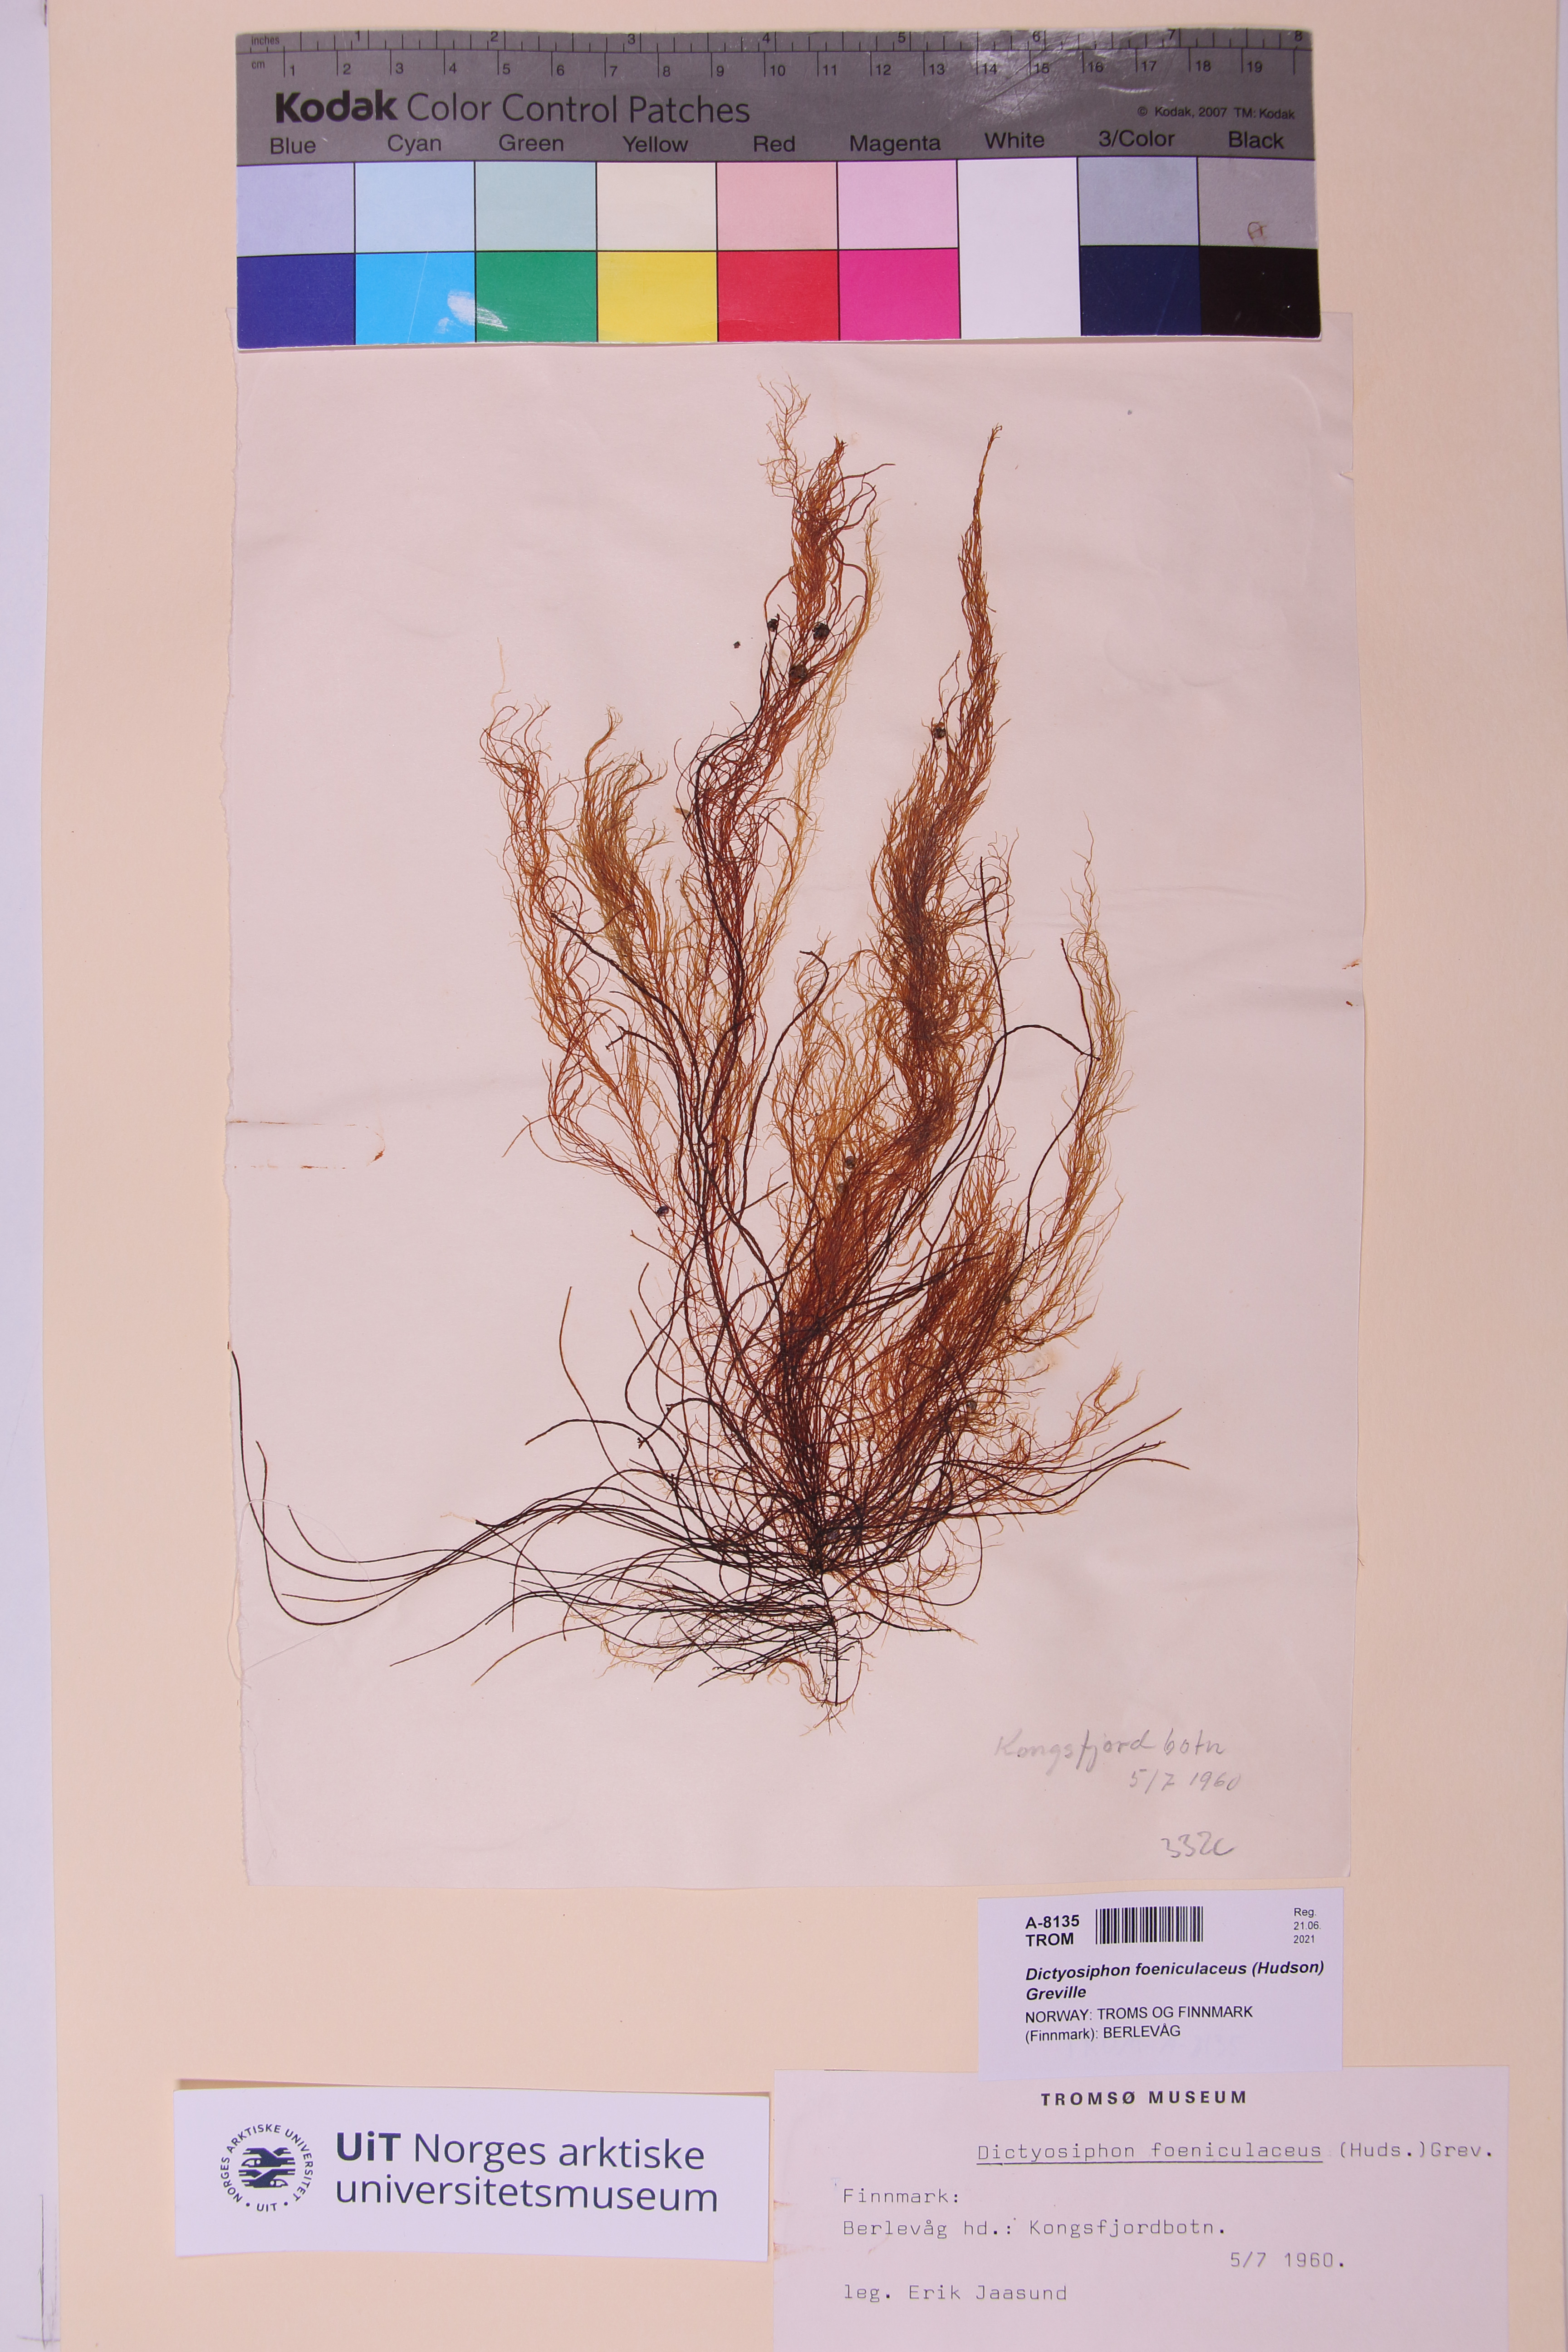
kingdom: Chromista
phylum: Ochrophyta
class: Phaeophyceae
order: Ectocarpales
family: Chordariaceae
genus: Dictyosiphon
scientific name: Dictyosiphon foeniculaceus
